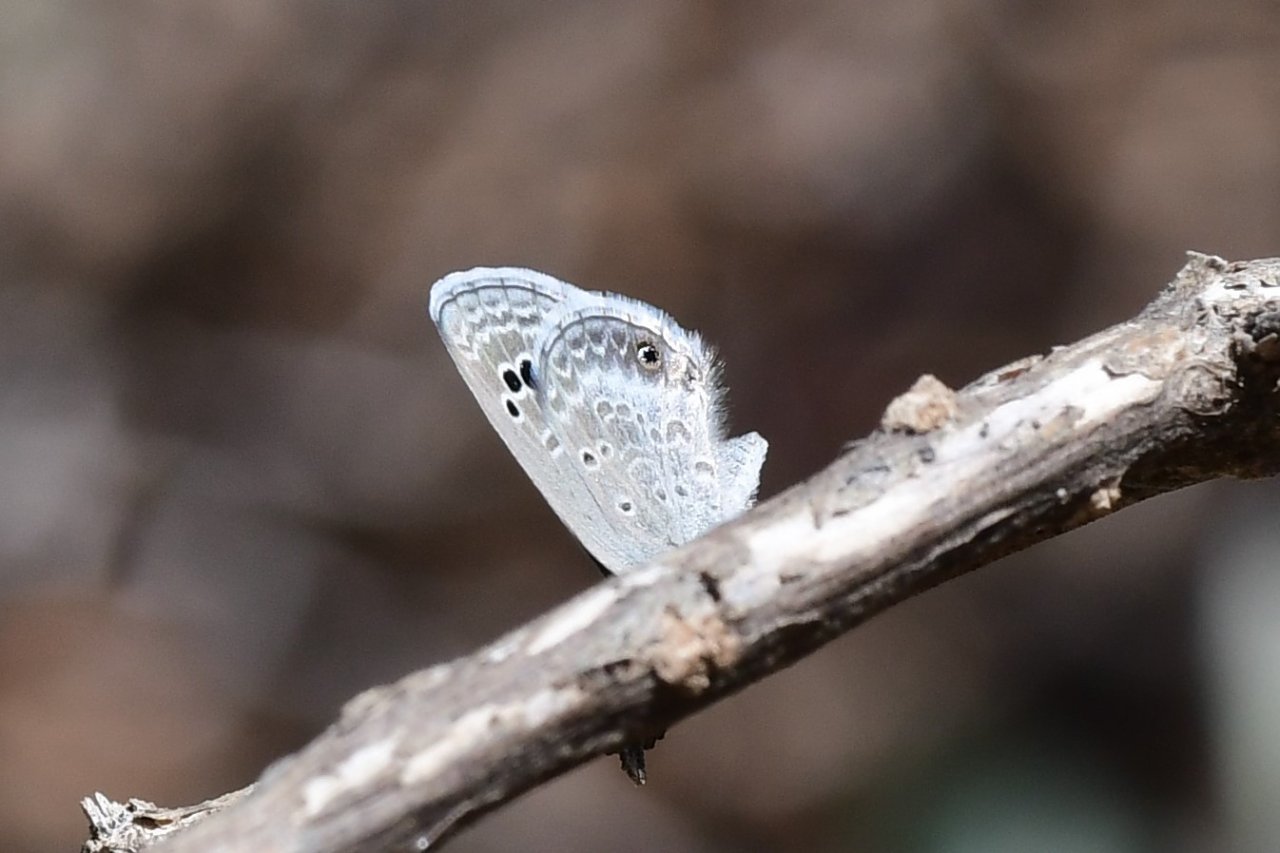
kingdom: Animalia
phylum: Arthropoda
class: Insecta
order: Lepidoptera
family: Lycaenidae
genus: Echinargus
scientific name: Echinargus isola
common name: Reakirt's Blue
